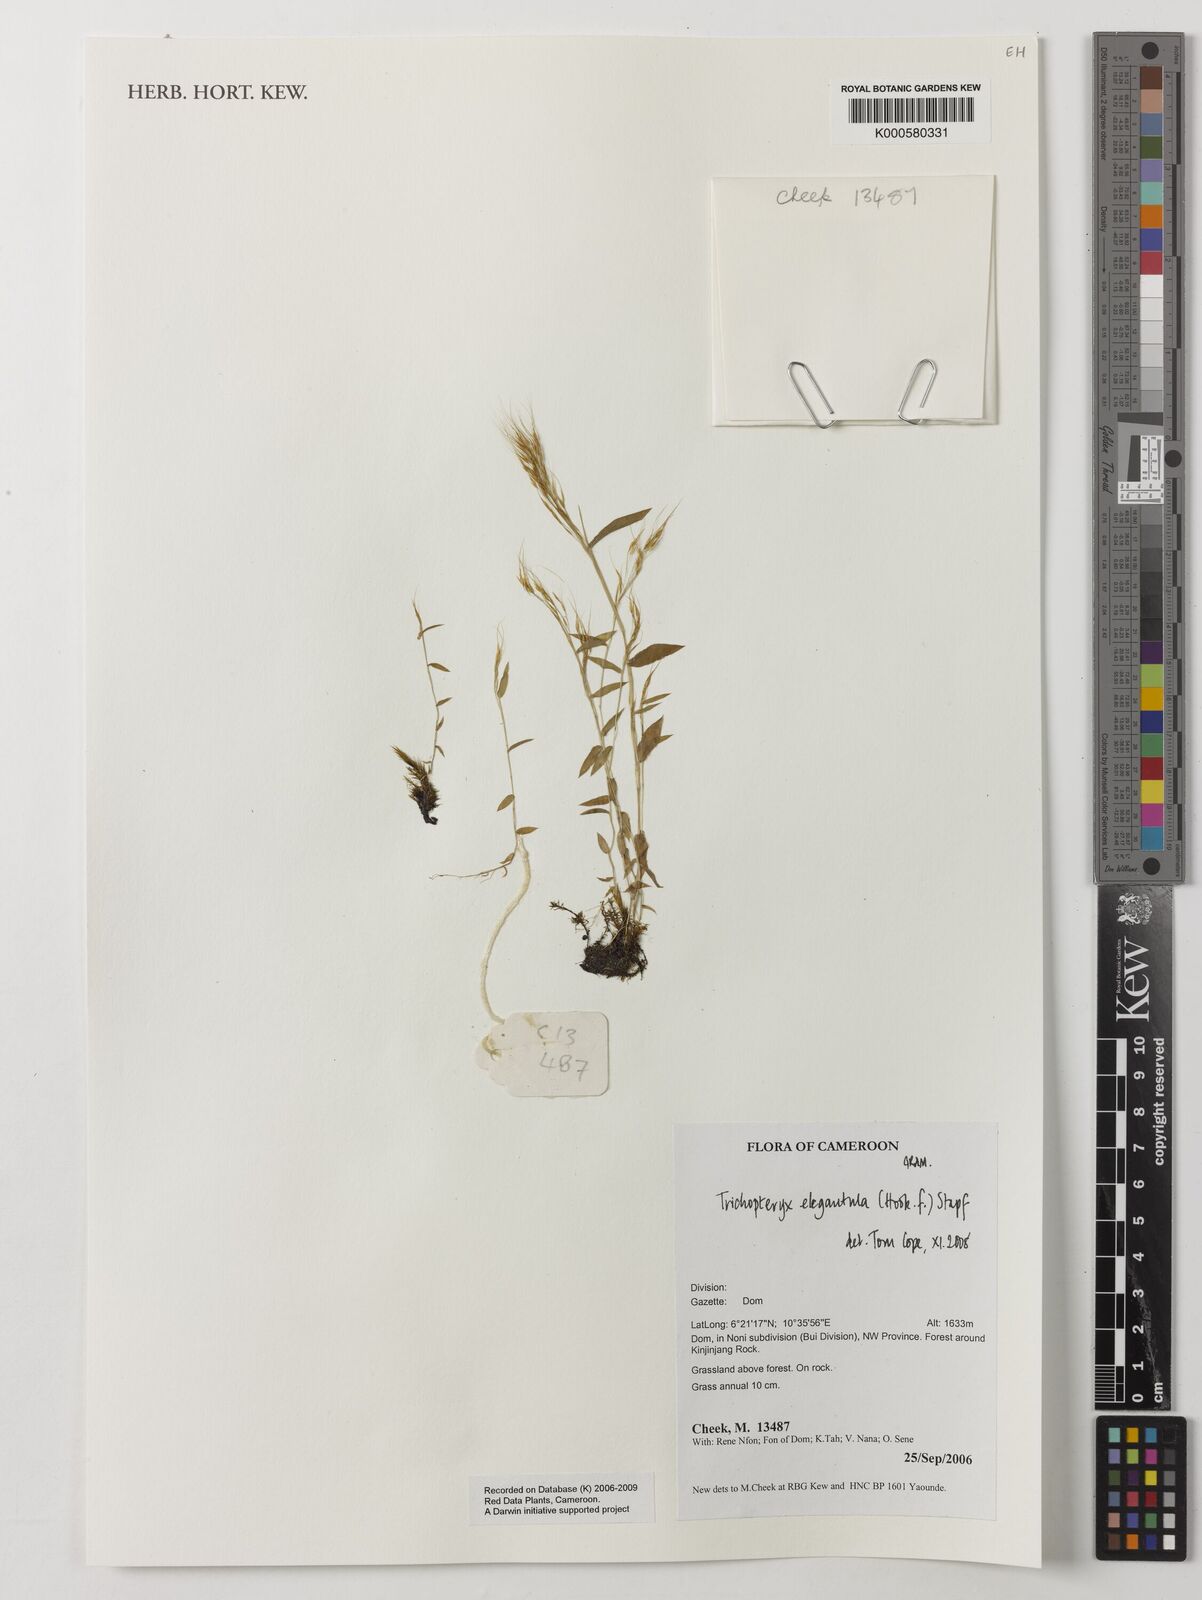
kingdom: Plantae
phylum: Tracheophyta
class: Liliopsida
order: Poales
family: Poaceae
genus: Trichopteryx
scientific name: Trichopteryx elegantula
